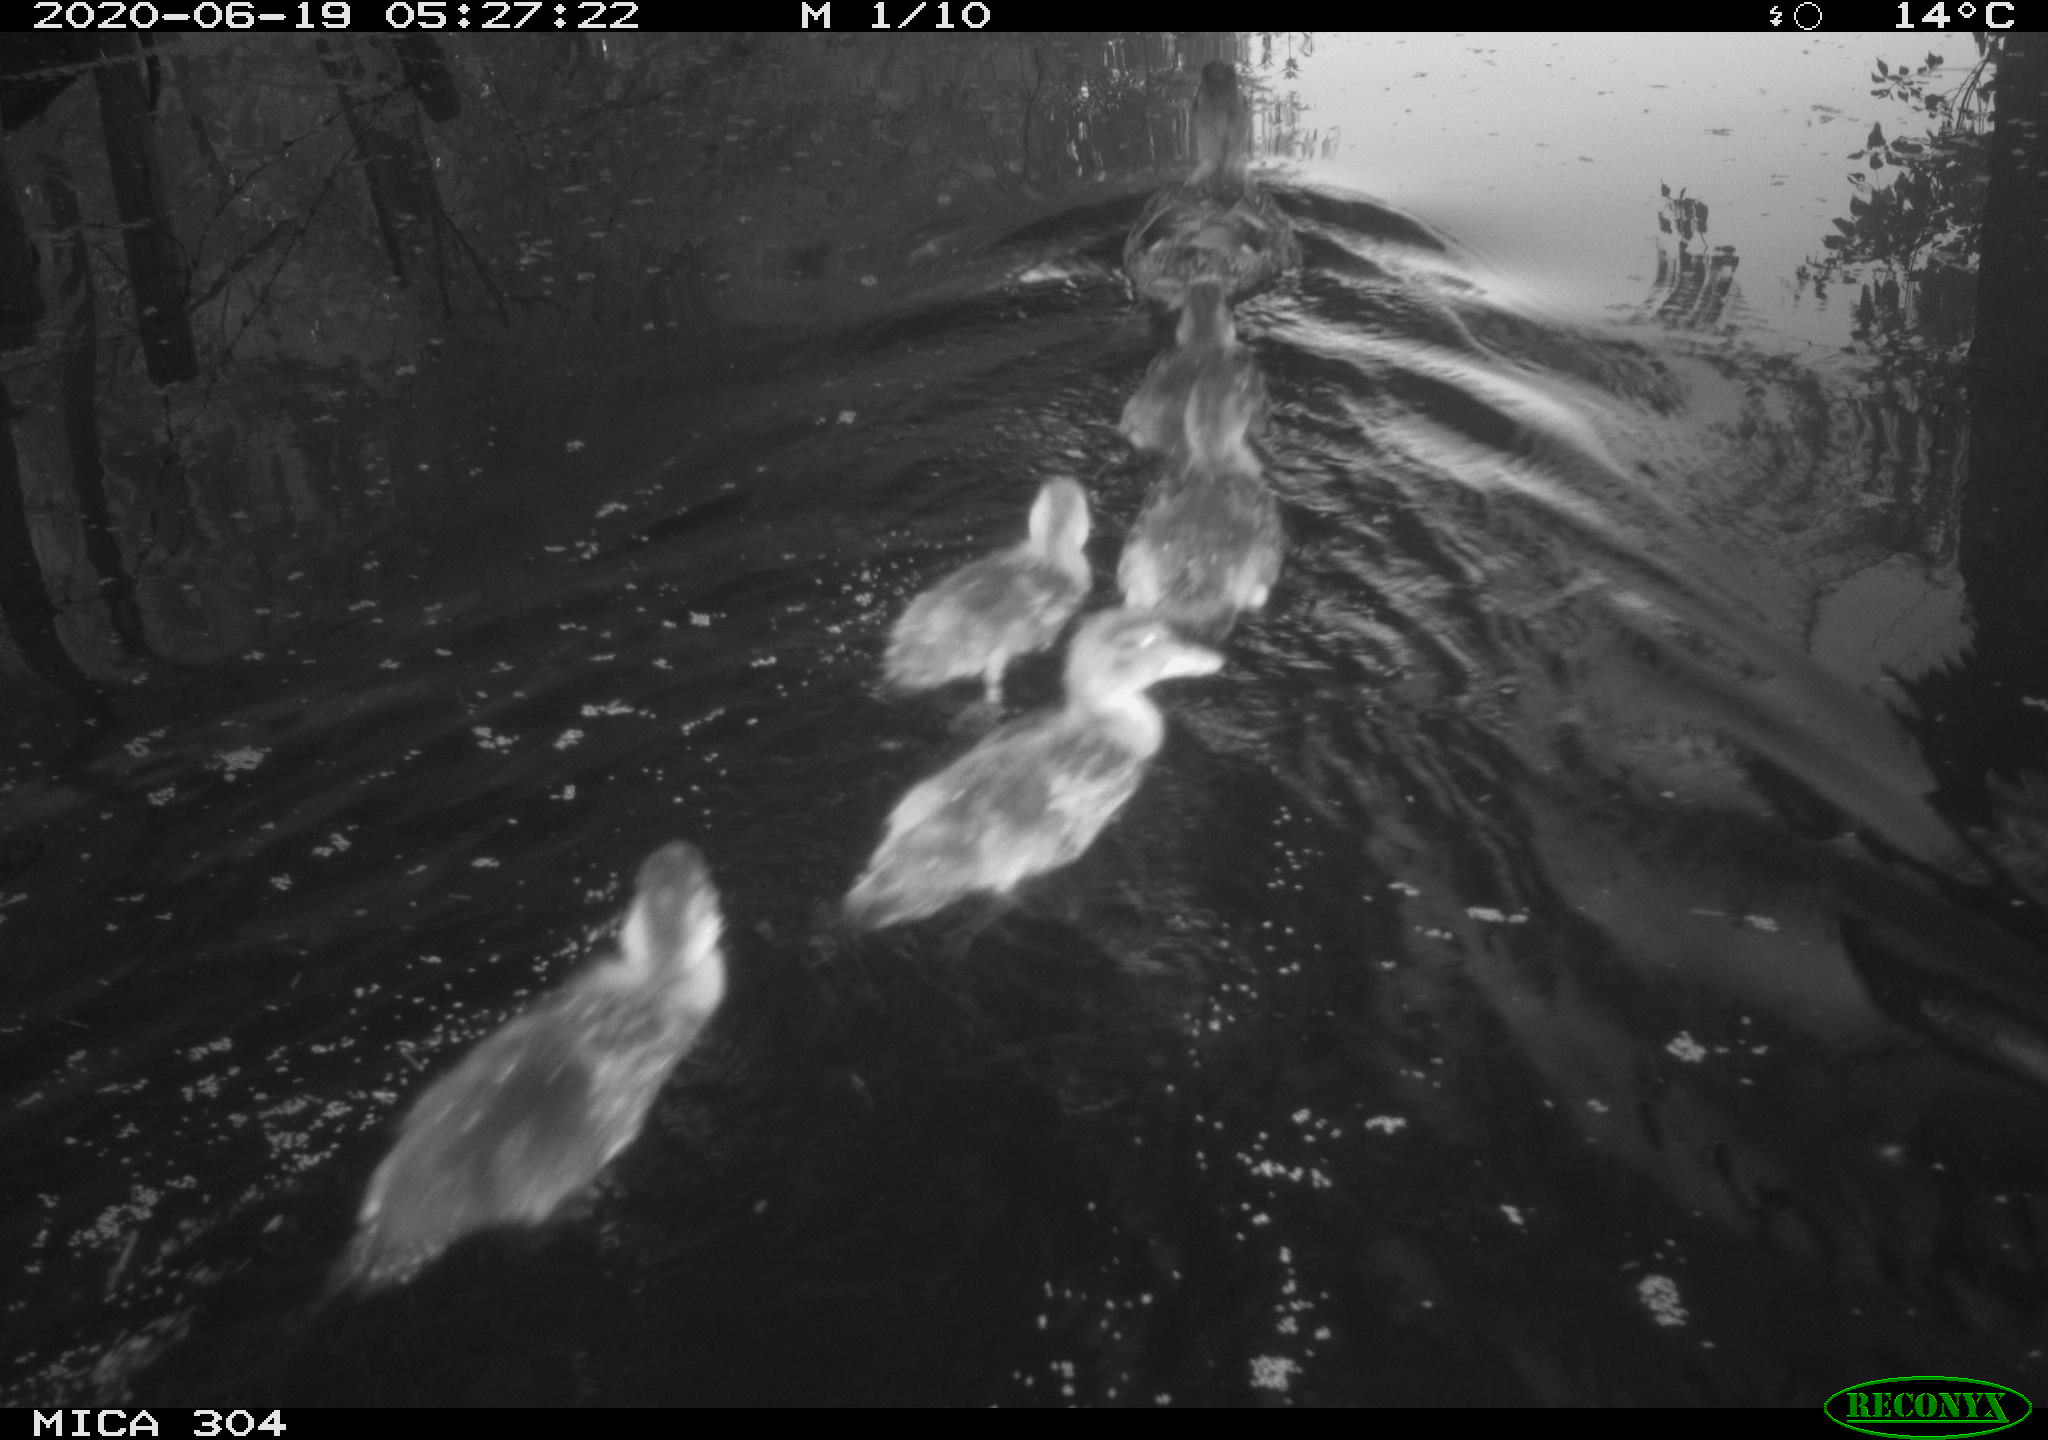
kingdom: Animalia
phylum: Chordata
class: Aves
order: Anseriformes
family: Anatidae
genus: Anas
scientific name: Anas platyrhynchos
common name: Mallard
